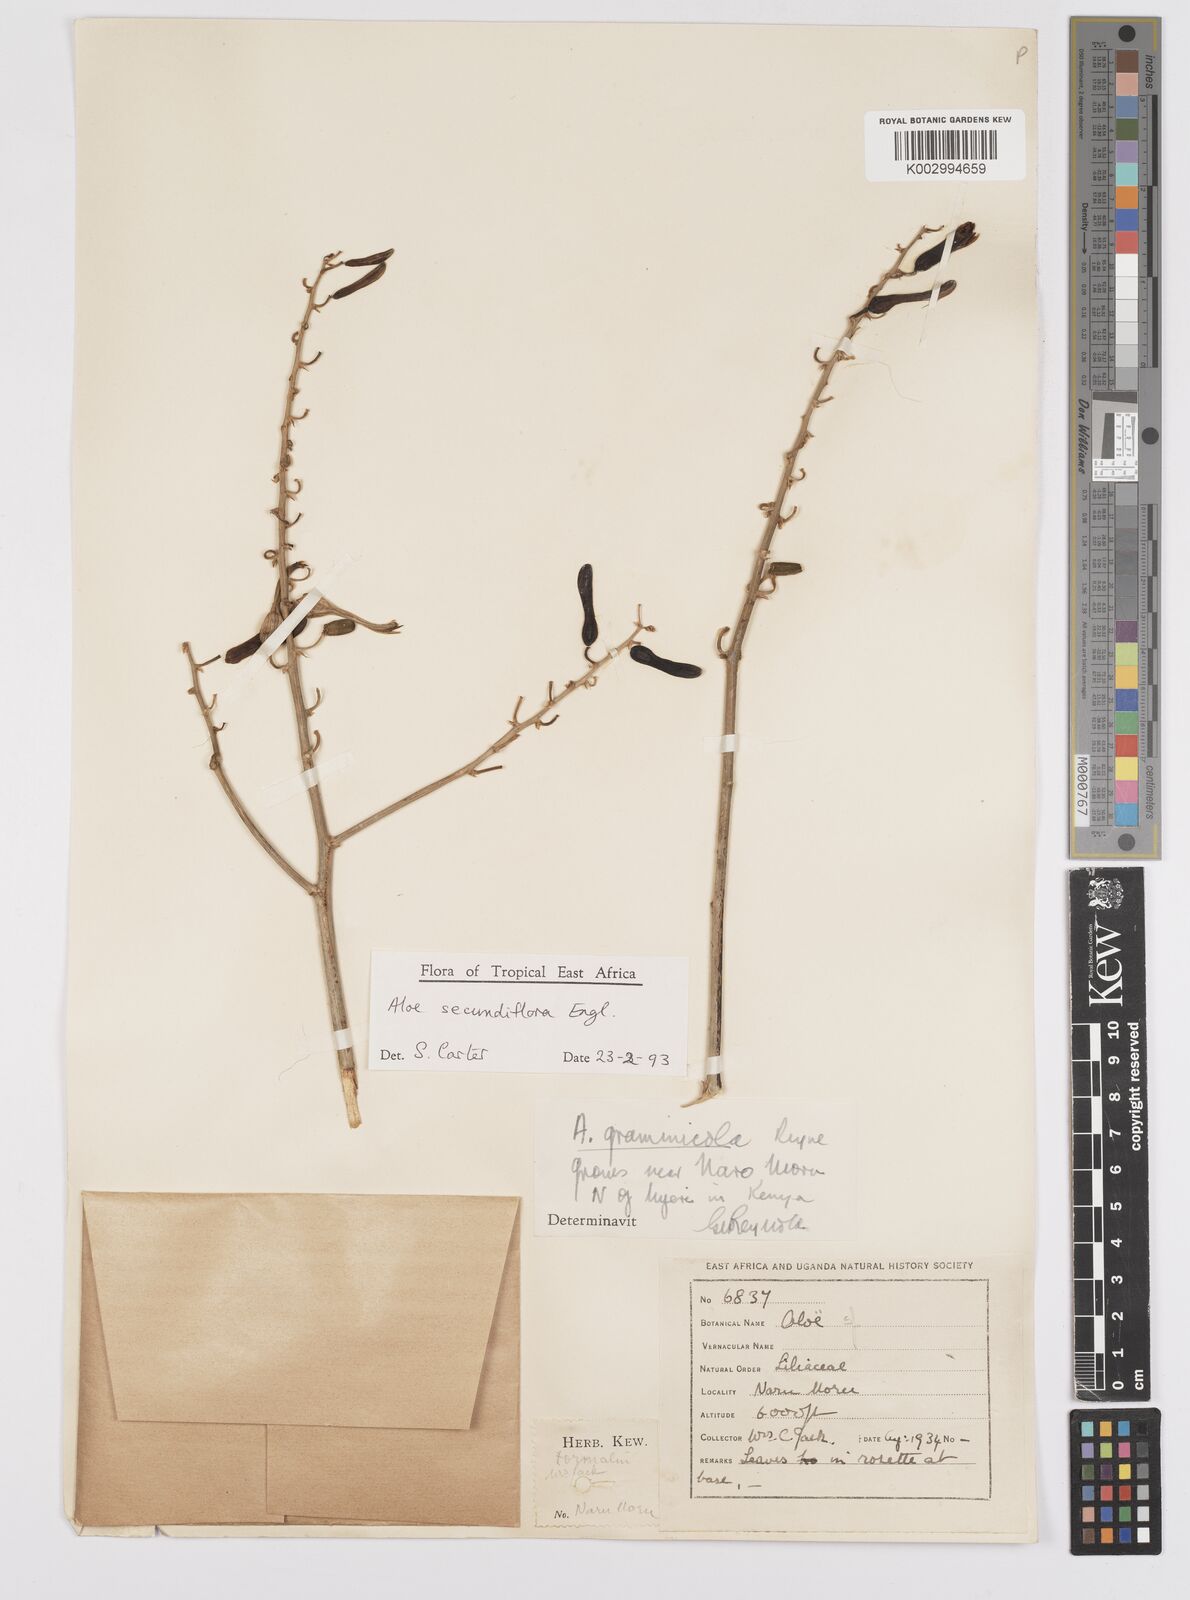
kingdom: Plantae
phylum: Tracheophyta
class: Liliopsida
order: Asparagales
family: Asphodelaceae
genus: Aloe
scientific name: Aloe secundiflora
